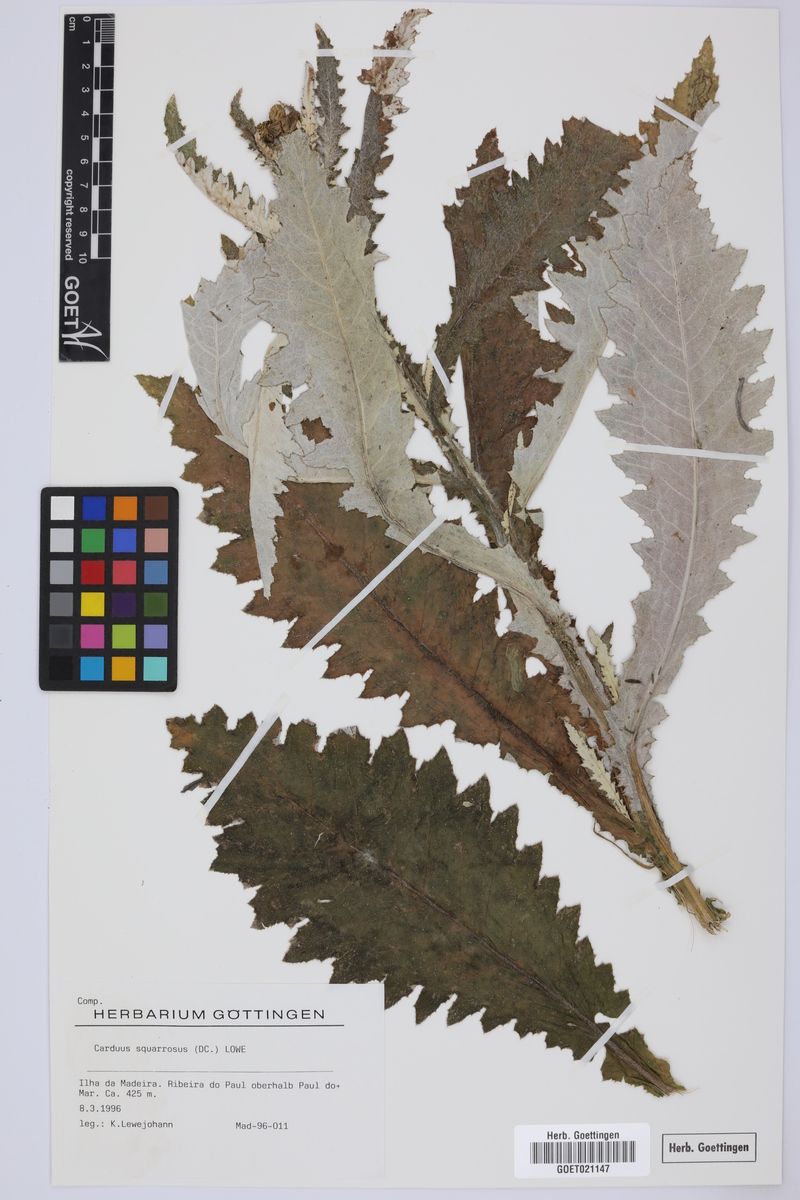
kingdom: Plantae
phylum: Tracheophyta
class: Magnoliopsida
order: Asterales
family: Asteraceae
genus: Carduus
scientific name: Carduus squarrosus
